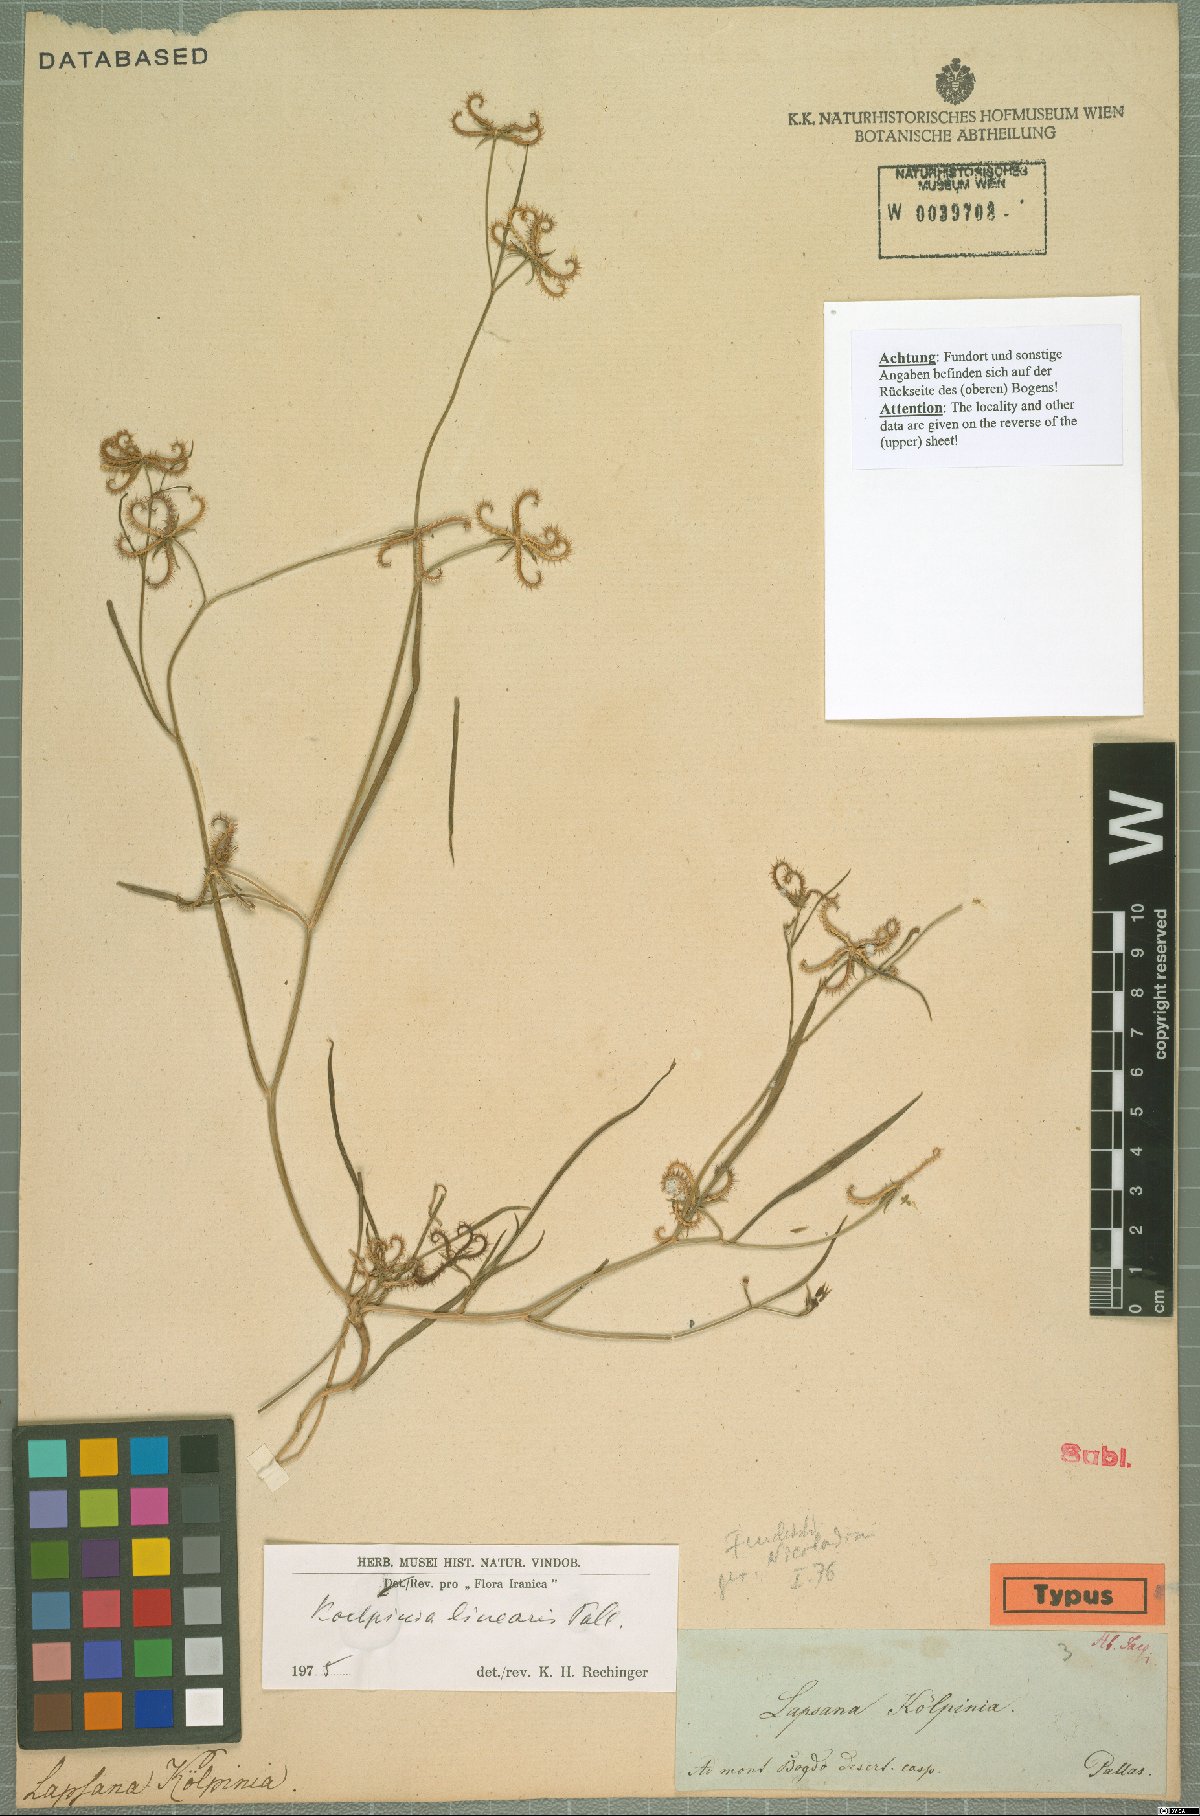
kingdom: Plantae
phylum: Tracheophyta
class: Magnoliopsida
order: Asterales
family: Asteraceae
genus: Koelpinia
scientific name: Koelpinia linearis
